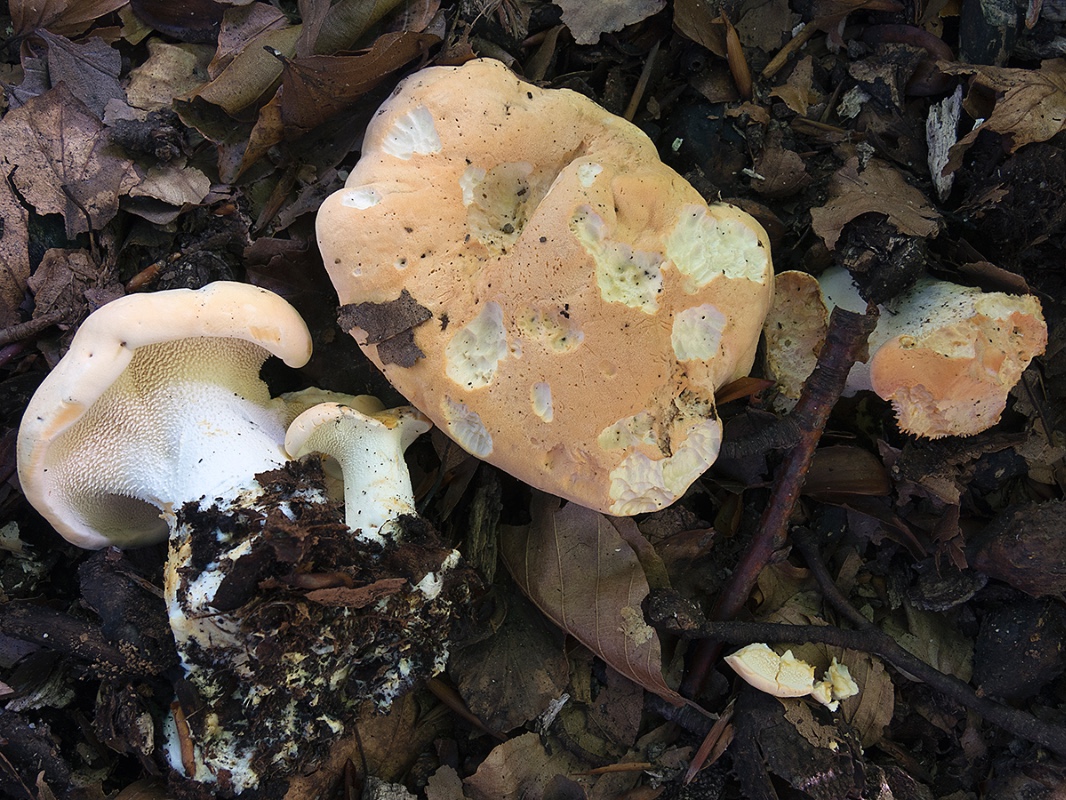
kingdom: Fungi
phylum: Basidiomycota
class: Agaricomycetes
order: Cantharellales
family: Hydnaceae
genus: Hydnum
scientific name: Hydnum slovenicum
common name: slovensk pigsvamp
